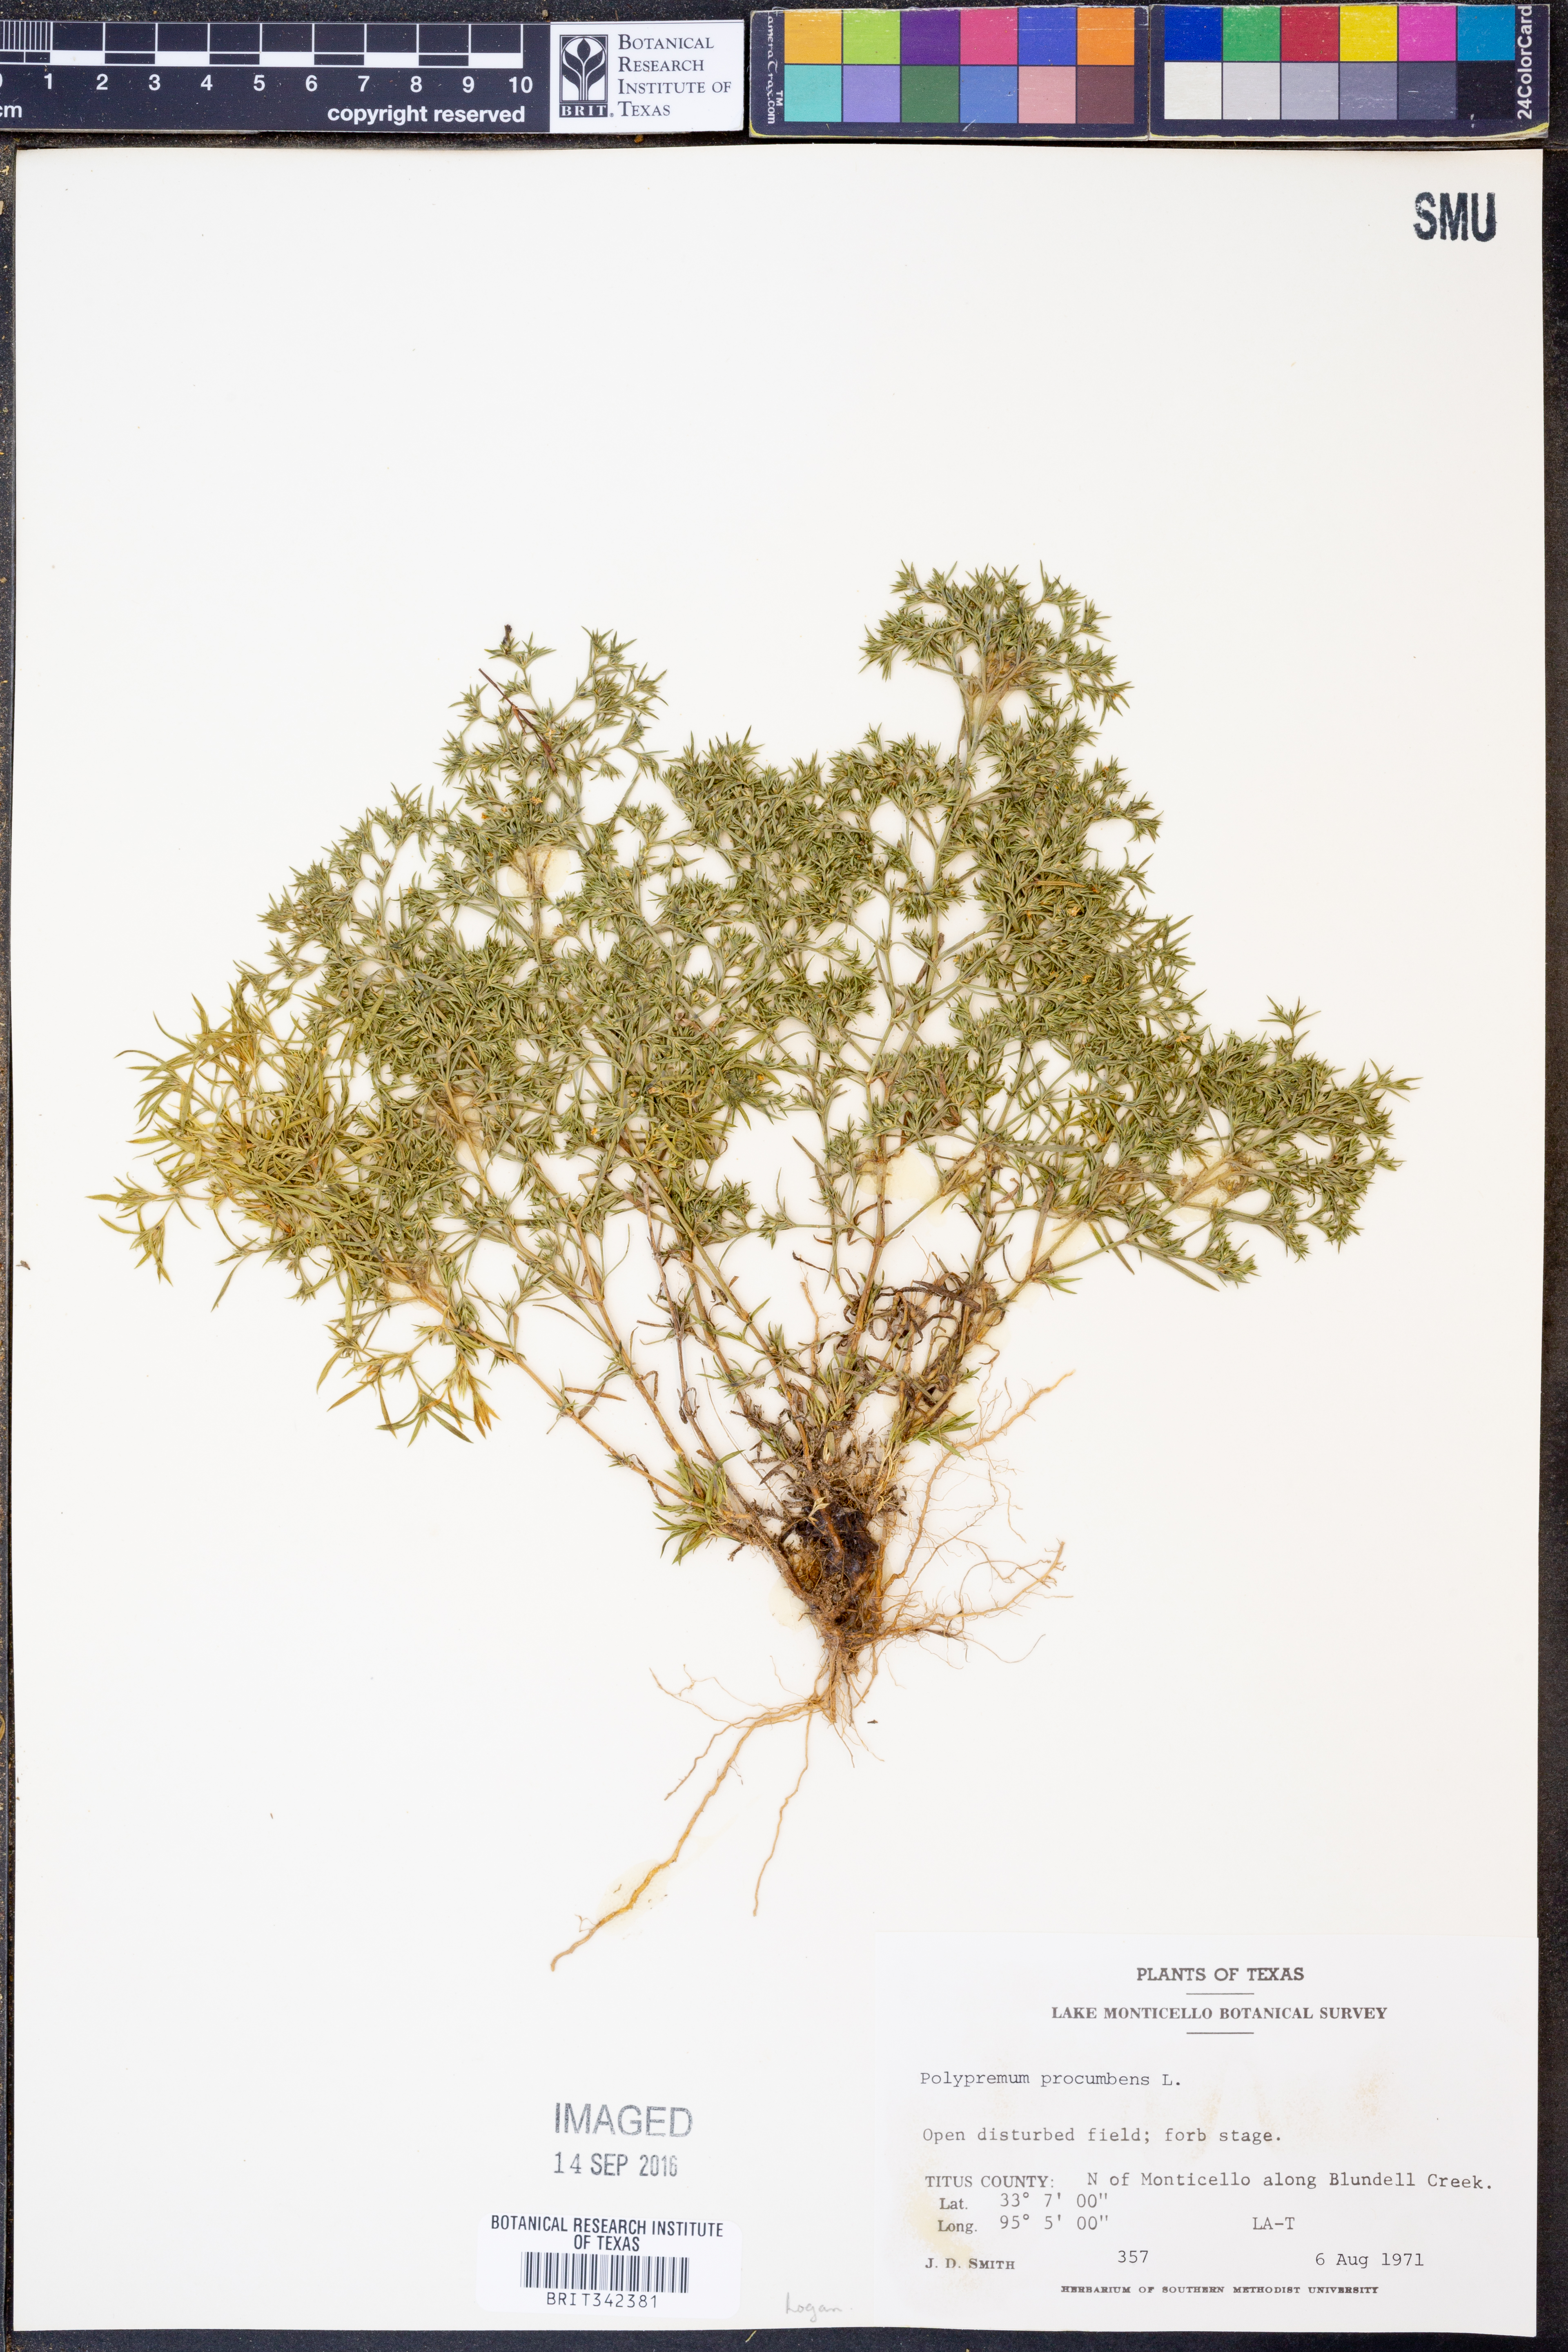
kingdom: Plantae
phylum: Tracheophyta
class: Magnoliopsida
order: Lamiales
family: Tetrachondraceae
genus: Polypremum
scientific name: Polypremum procumbens
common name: Juniper-leaf
